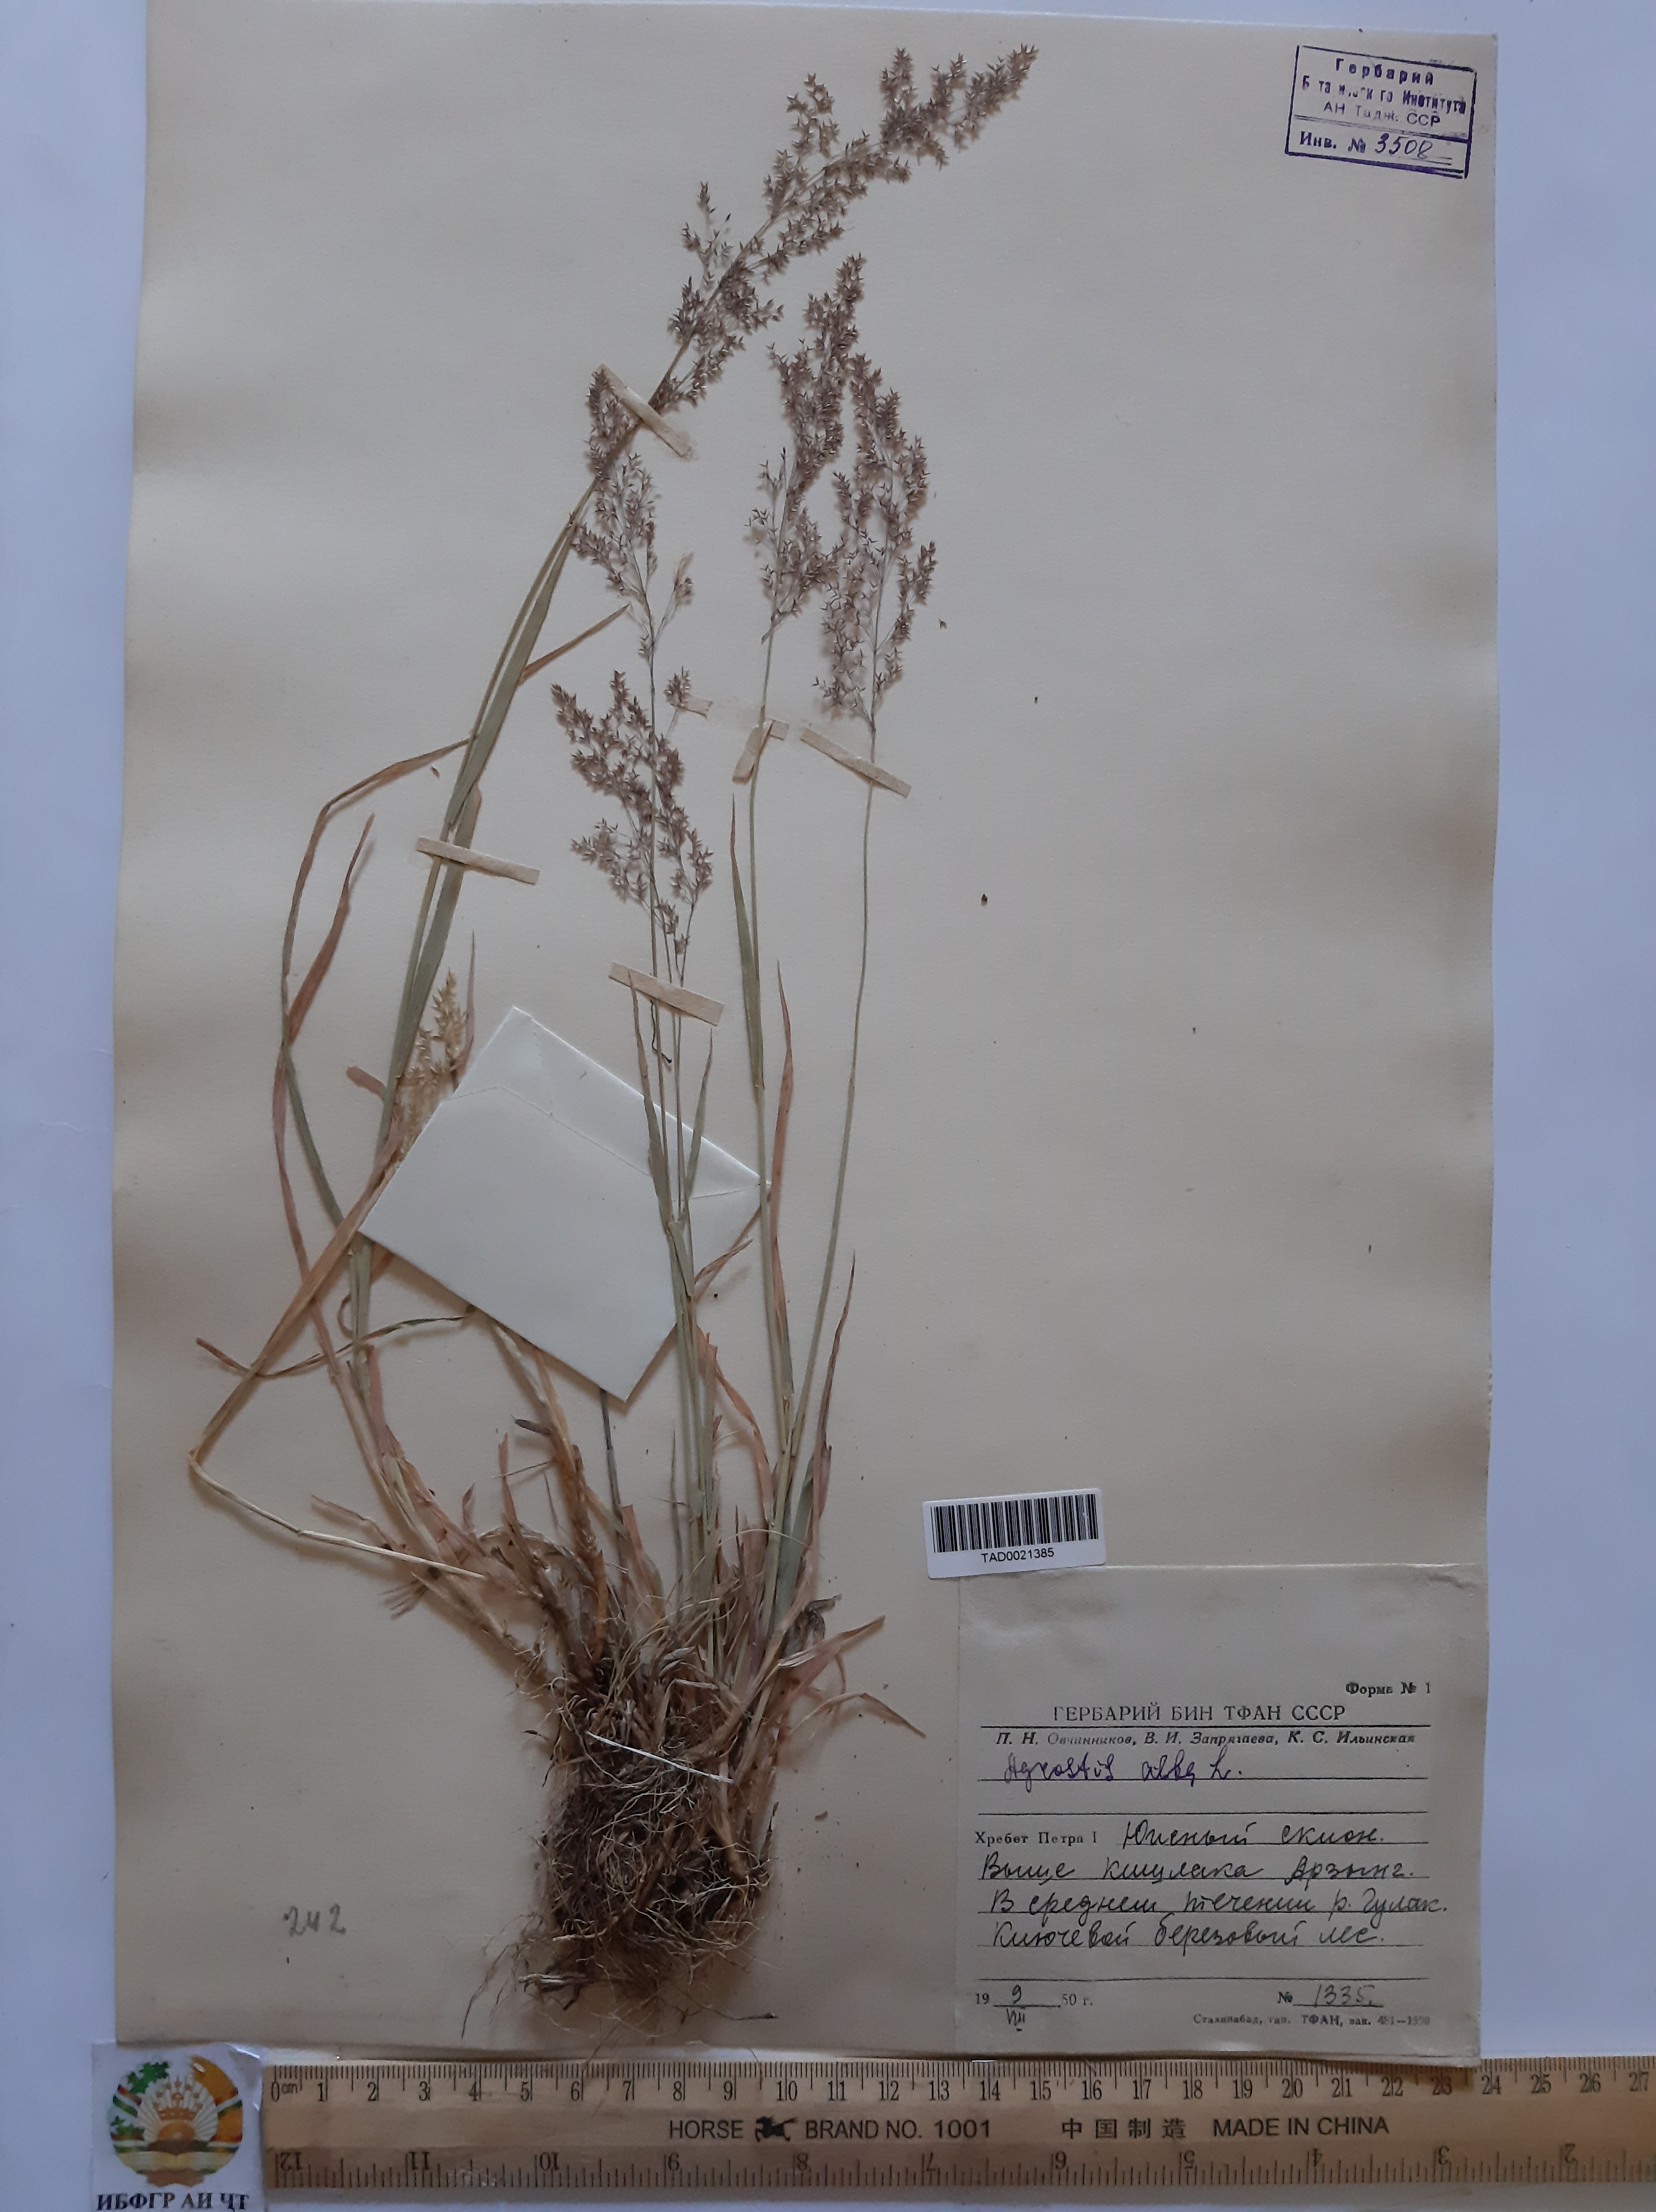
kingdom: Plantae
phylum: Tracheophyta
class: Liliopsida
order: Poales
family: Poaceae
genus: Poa
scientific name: Poa nemoralis
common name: Wood bluegrass
